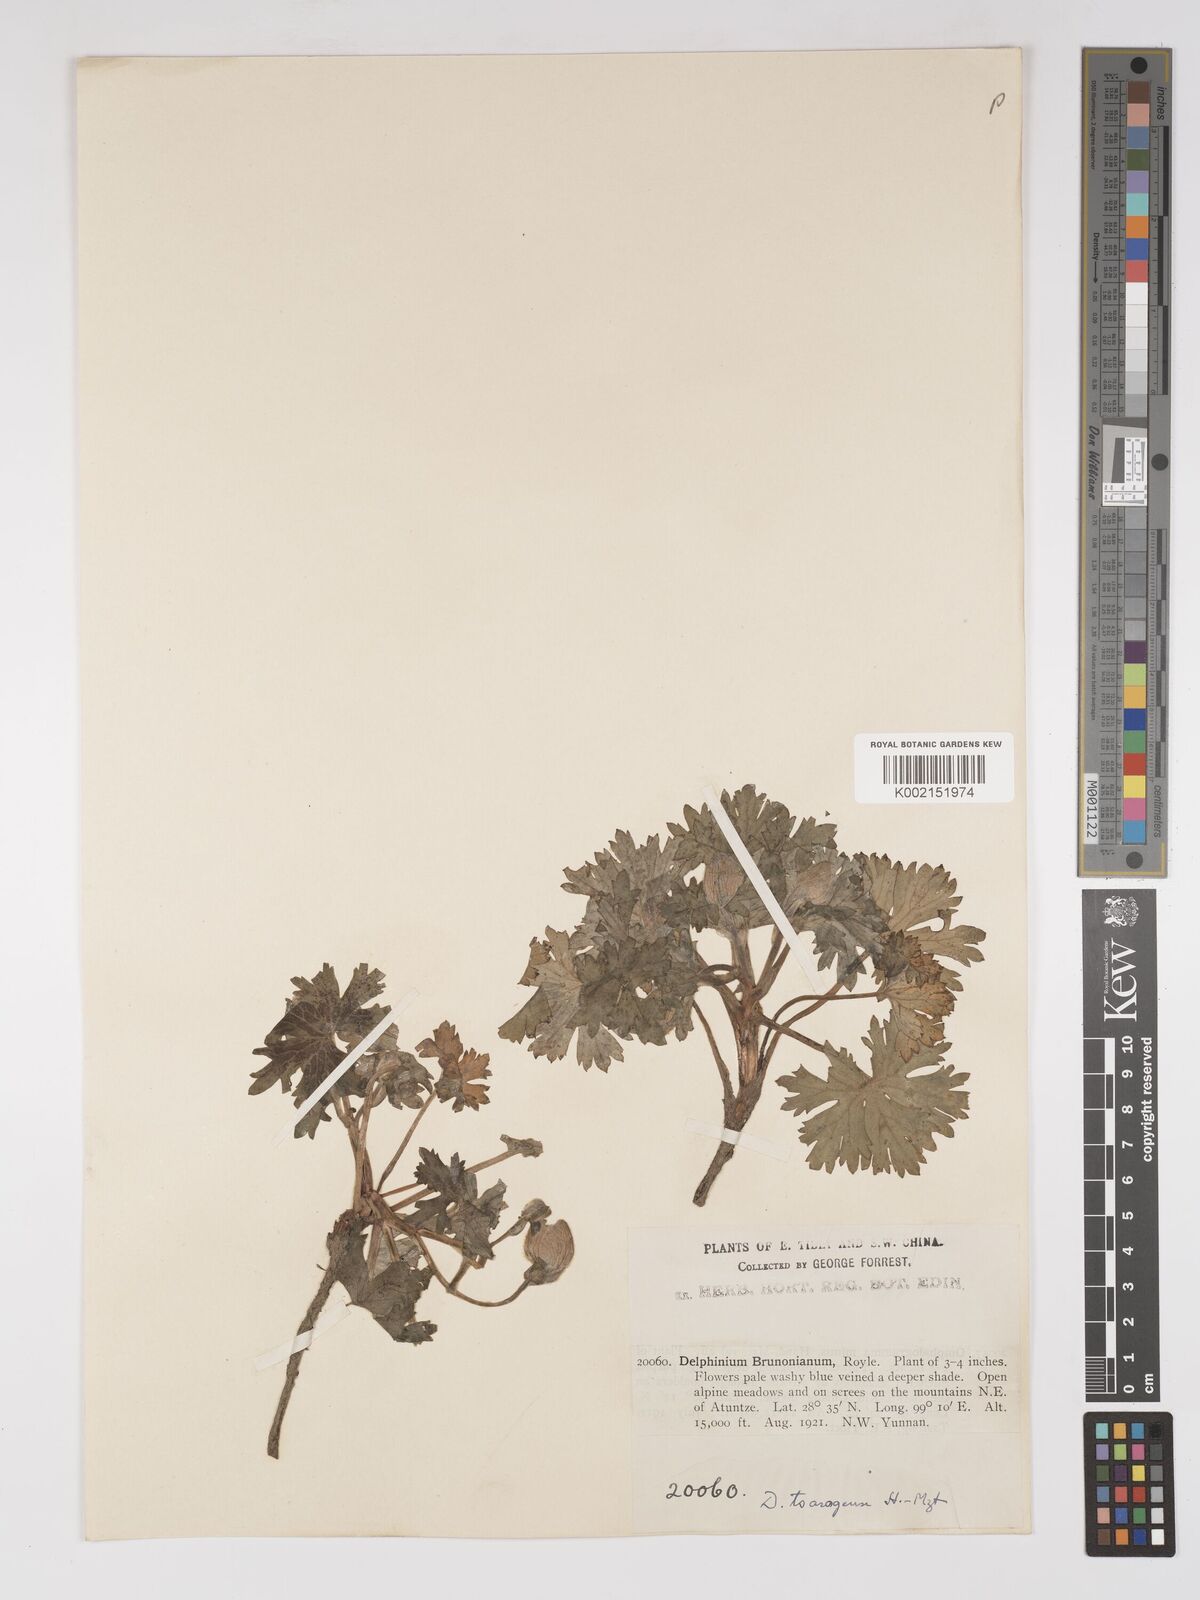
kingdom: Plantae
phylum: Tracheophyta
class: Magnoliopsida
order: Ranunculales
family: Ranunculaceae
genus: Delphinium
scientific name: Delphinium chrysotrichum
